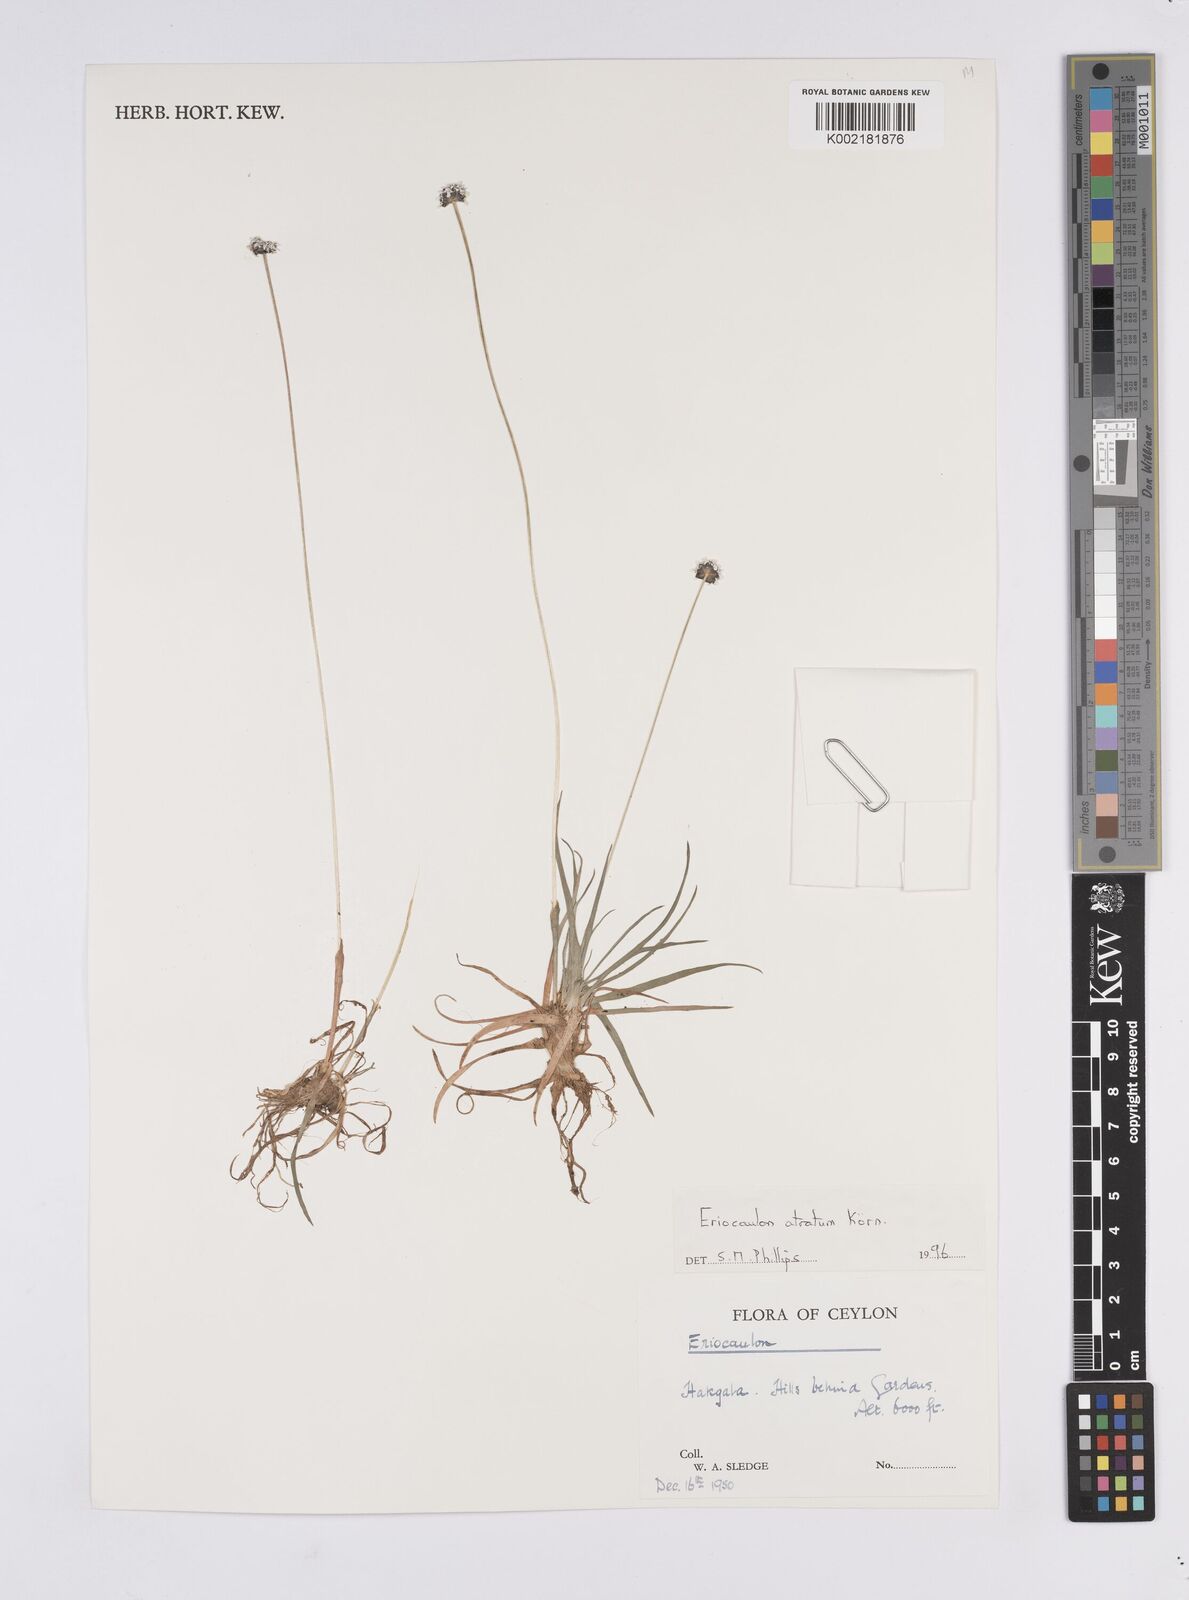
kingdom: Plantae
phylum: Tracheophyta
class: Liliopsida
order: Poales
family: Eriocaulaceae
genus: Eriocaulon
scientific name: Eriocaulon atratum
